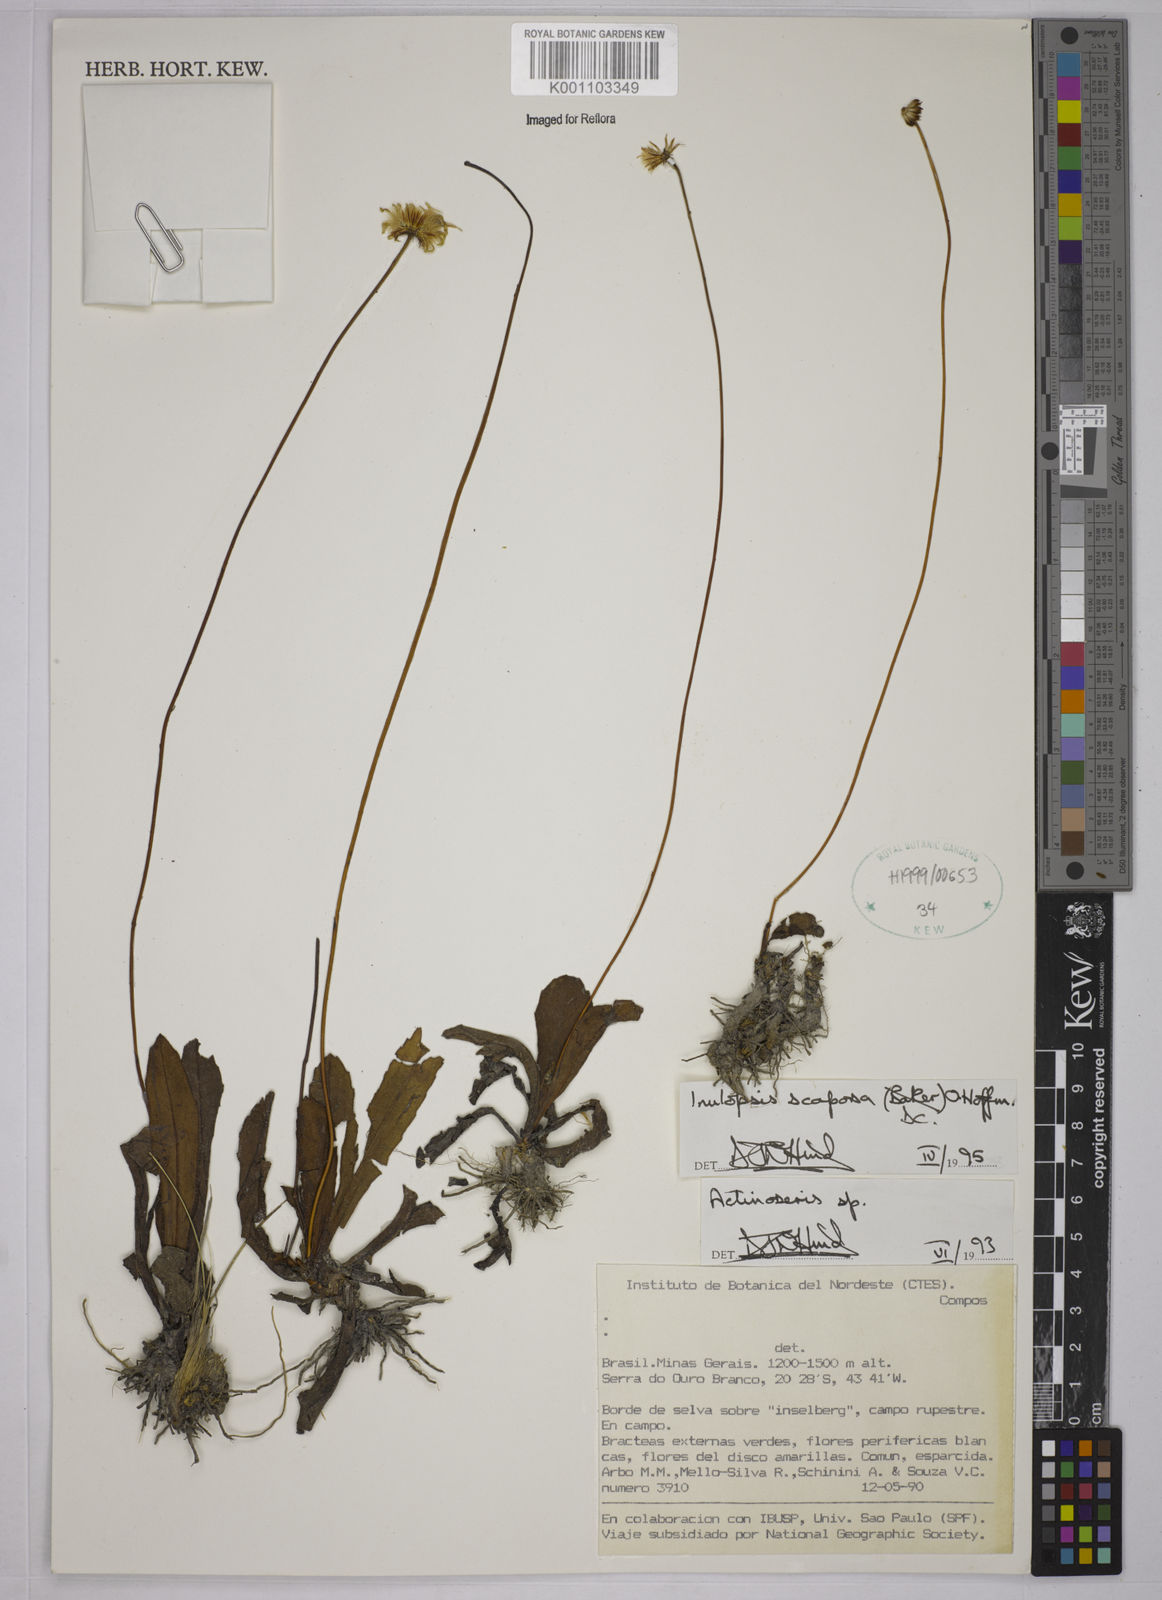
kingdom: Plantae
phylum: Tracheophyta
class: Magnoliopsida
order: Asterales
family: Asteraceae
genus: Inulopsis
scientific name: Inulopsis scaposa
